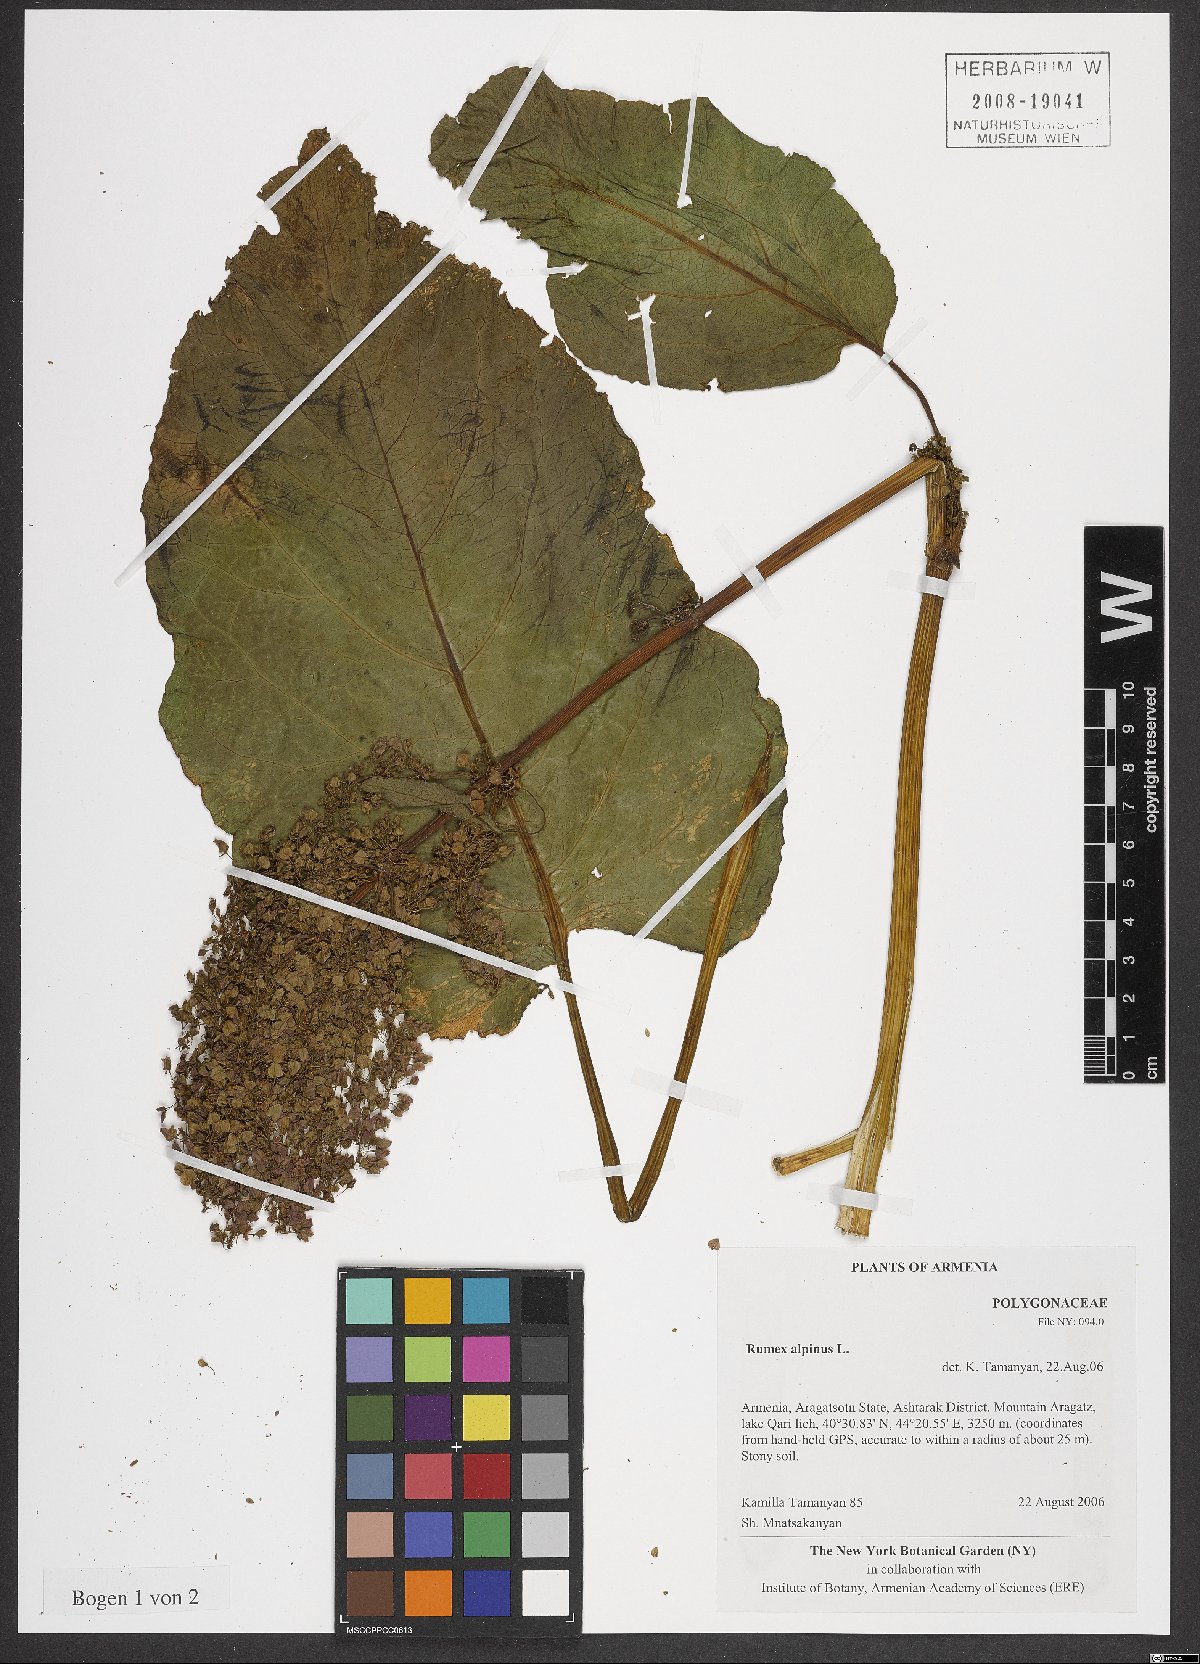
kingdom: Plantae
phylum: Tracheophyta
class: Magnoliopsida
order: Caryophyllales
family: Polygonaceae
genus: Rumex
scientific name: Rumex alpinus
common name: Alpine dock
